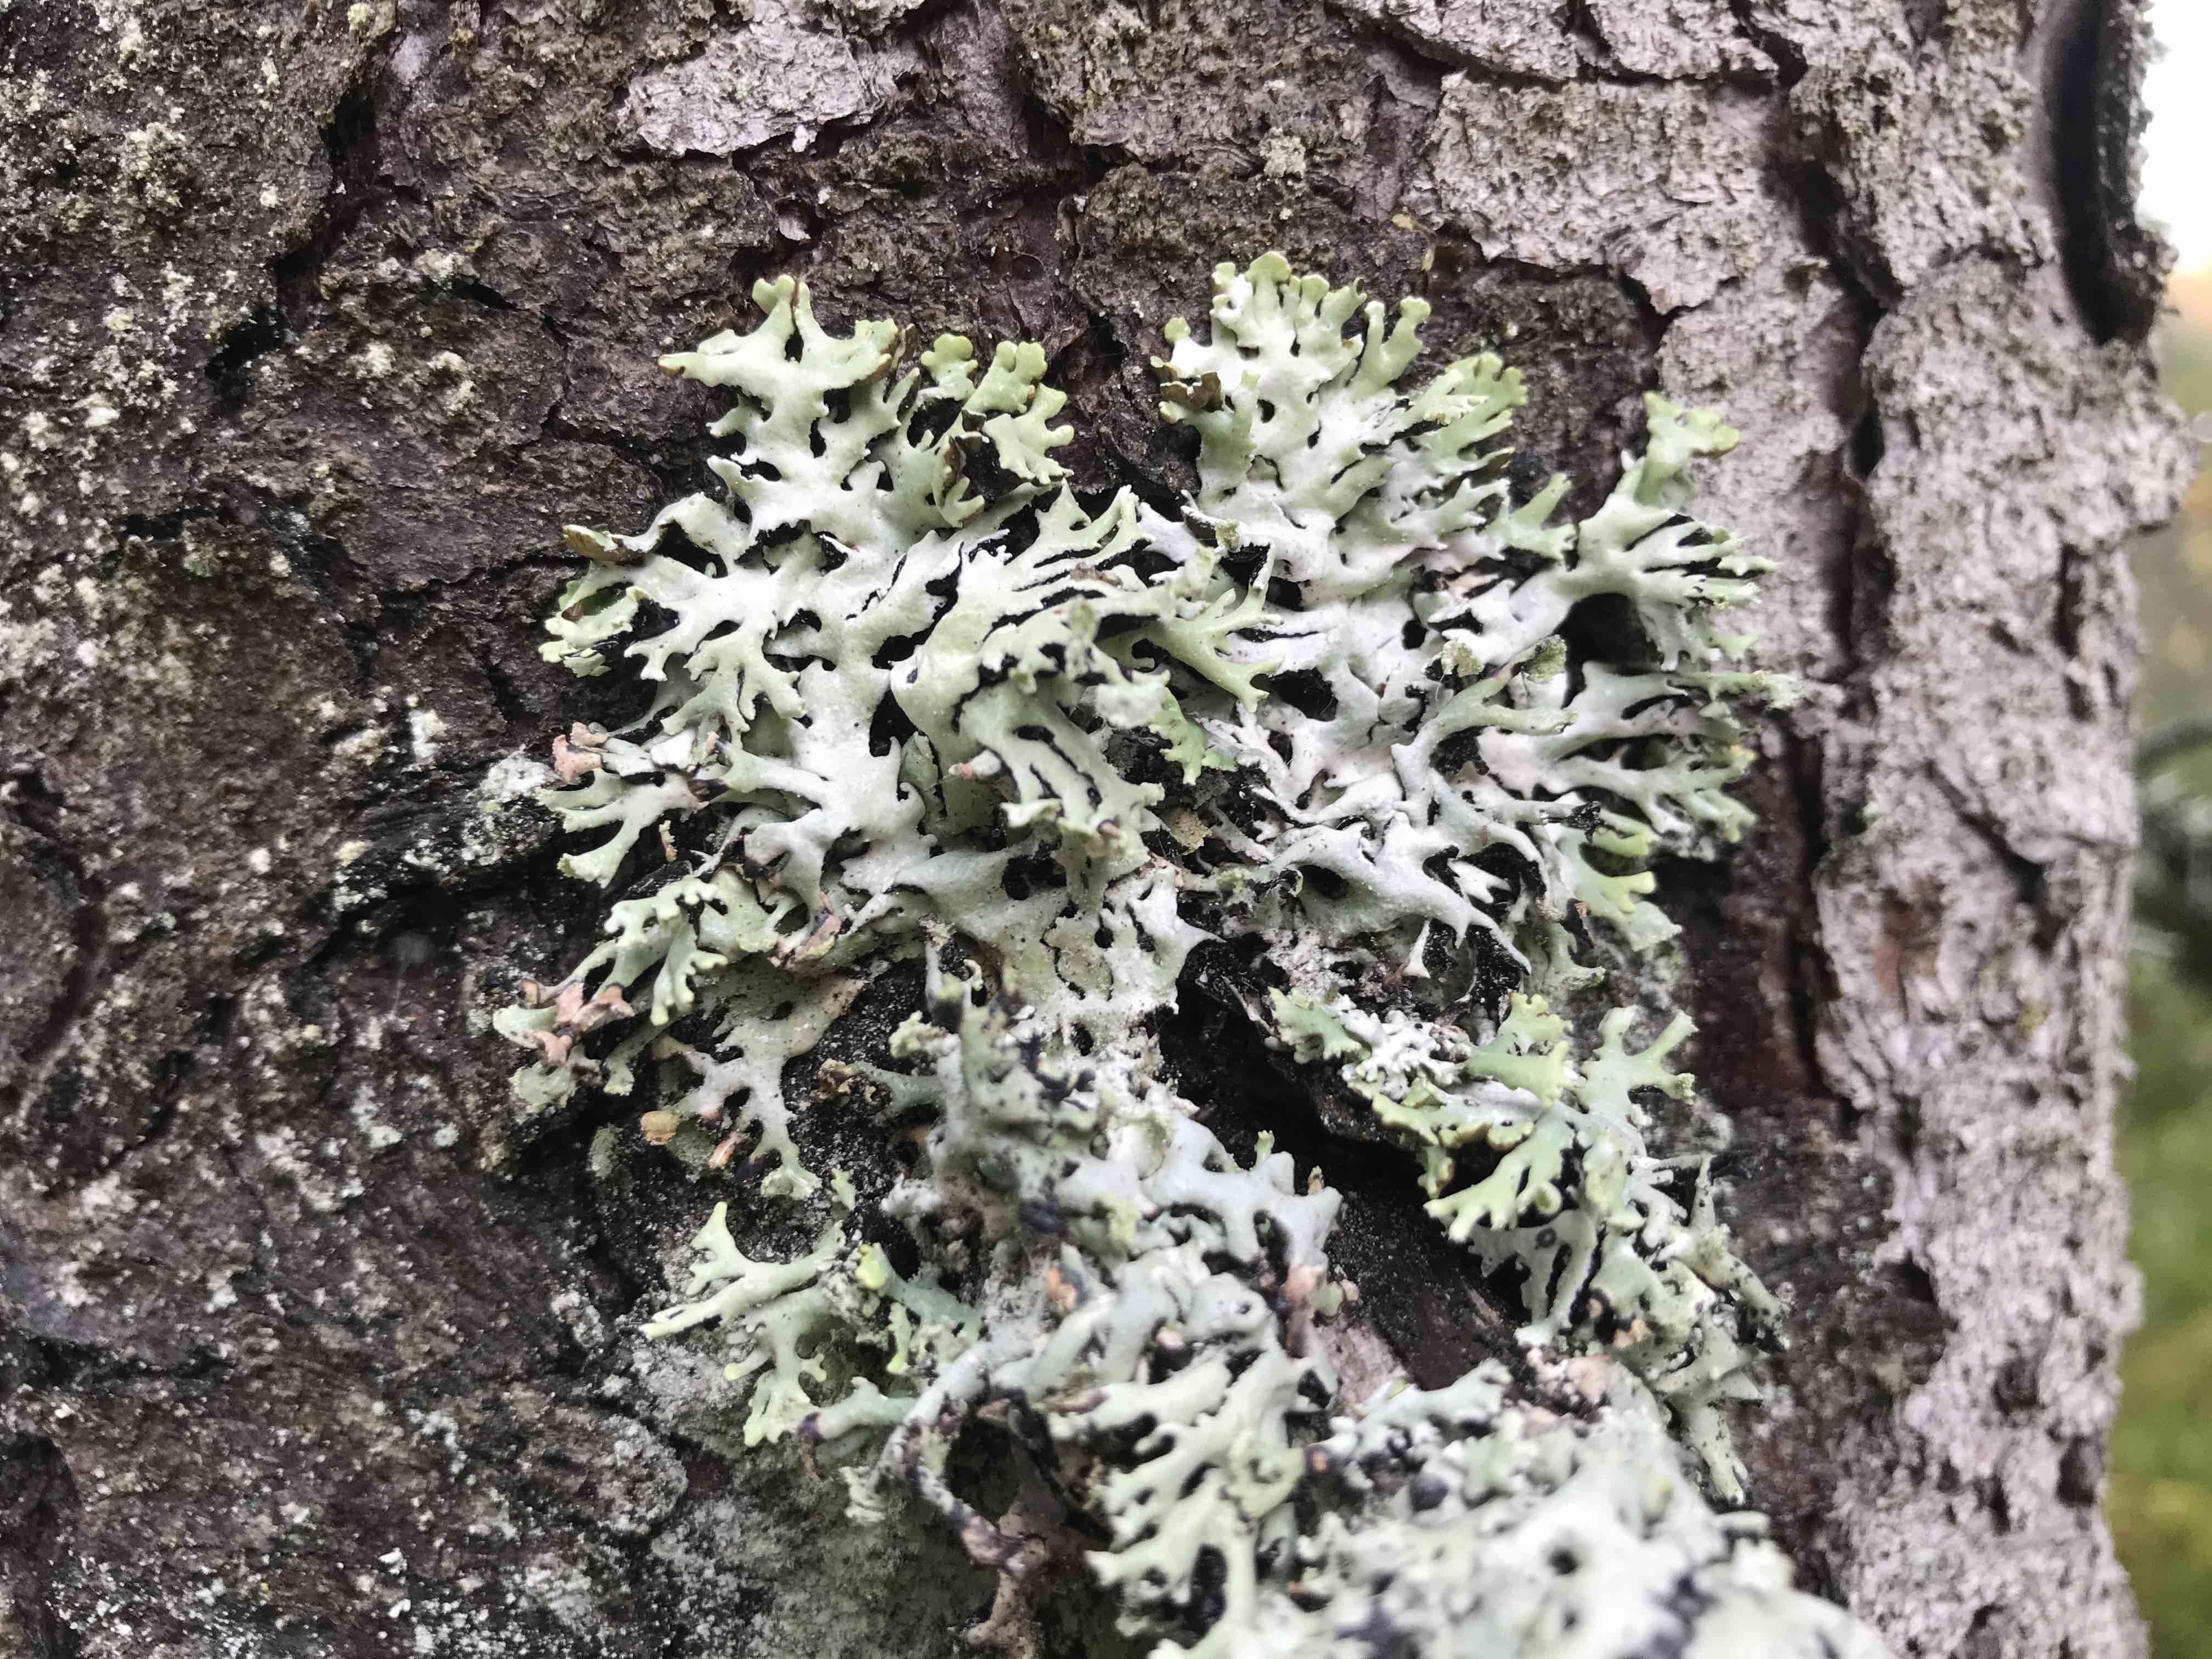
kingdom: Fungi
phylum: Ascomycota
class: Lecanoromycetes
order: Lecanorales
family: Parmeliaceae
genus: Hypogymnia
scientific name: Hypogymnia physodes
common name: almindelig kvistlav
